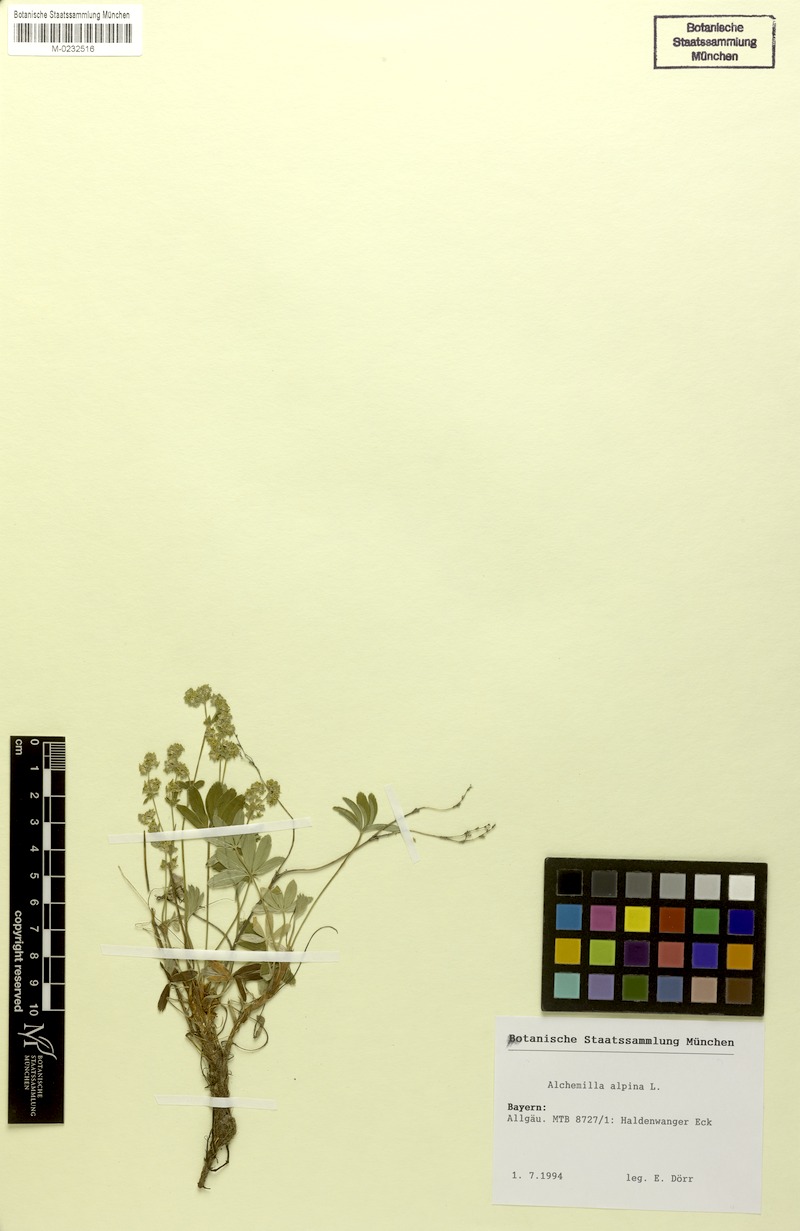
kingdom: Plantae
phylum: Tracheophyta
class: Magnoliopsida
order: Rosales
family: Rosaceae
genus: Alchemilla
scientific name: Alchemilla alpina
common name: Alpine lady's-mantle
